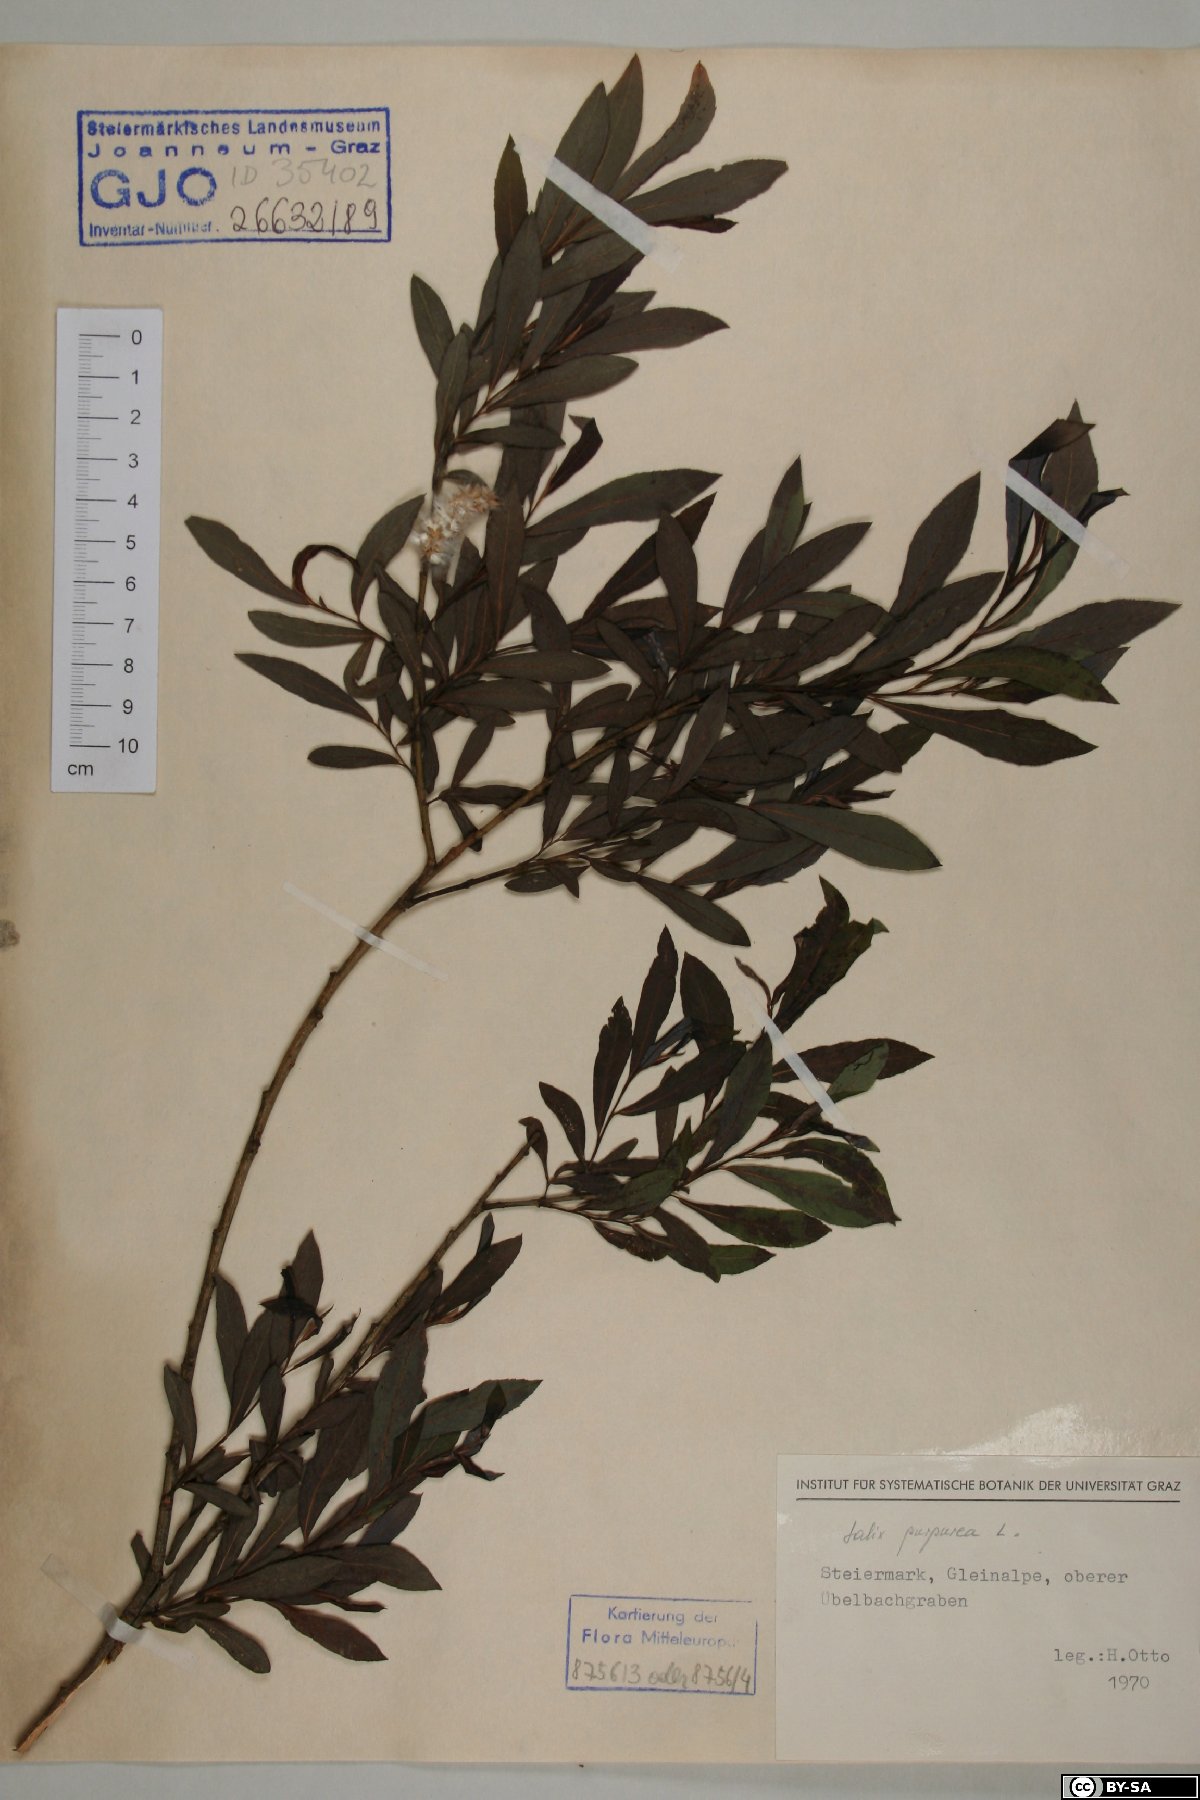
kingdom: Plantae
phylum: Tracheophyta
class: Magnoliopsida
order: Malpighiales
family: Salicaceae
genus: Salix
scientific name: Salix purpurea
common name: Purple willow
